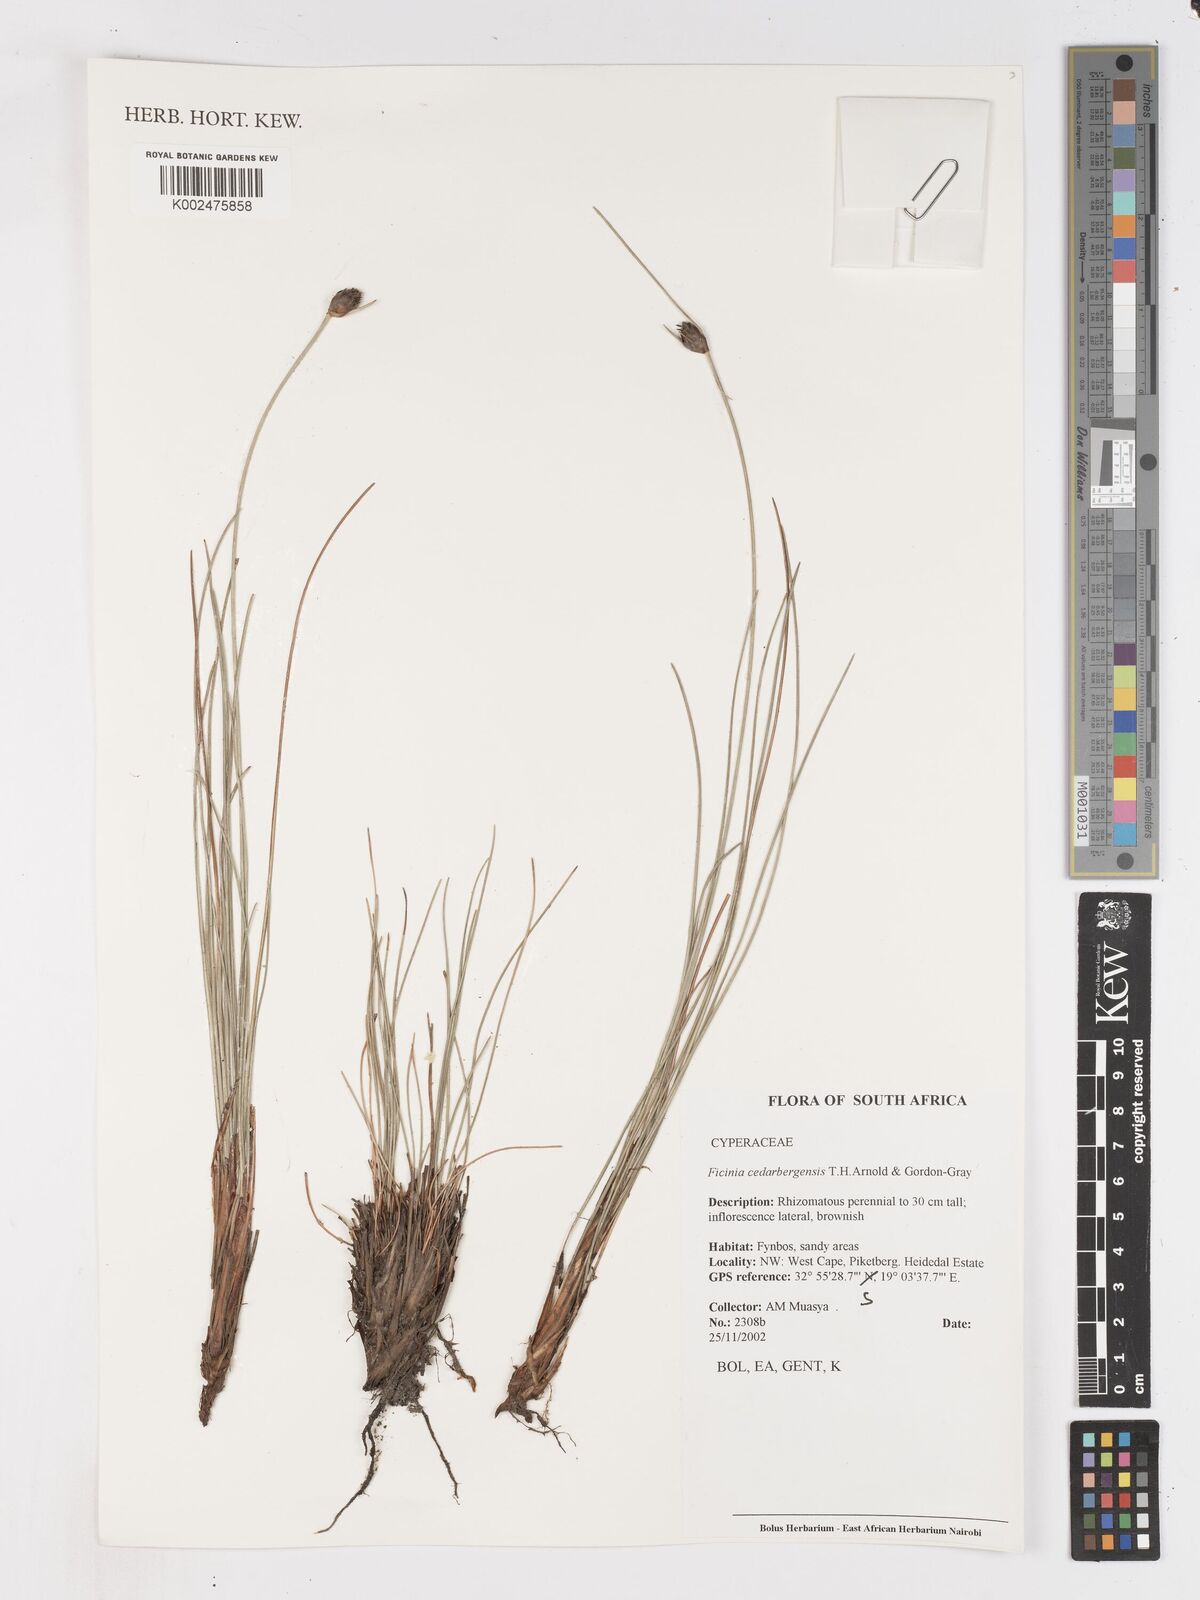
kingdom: Plantae
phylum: Tracheophyta
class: Liliopsida
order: Poales
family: Cyperaceae
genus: Ficinia
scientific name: Ficinia cedarbergensis
